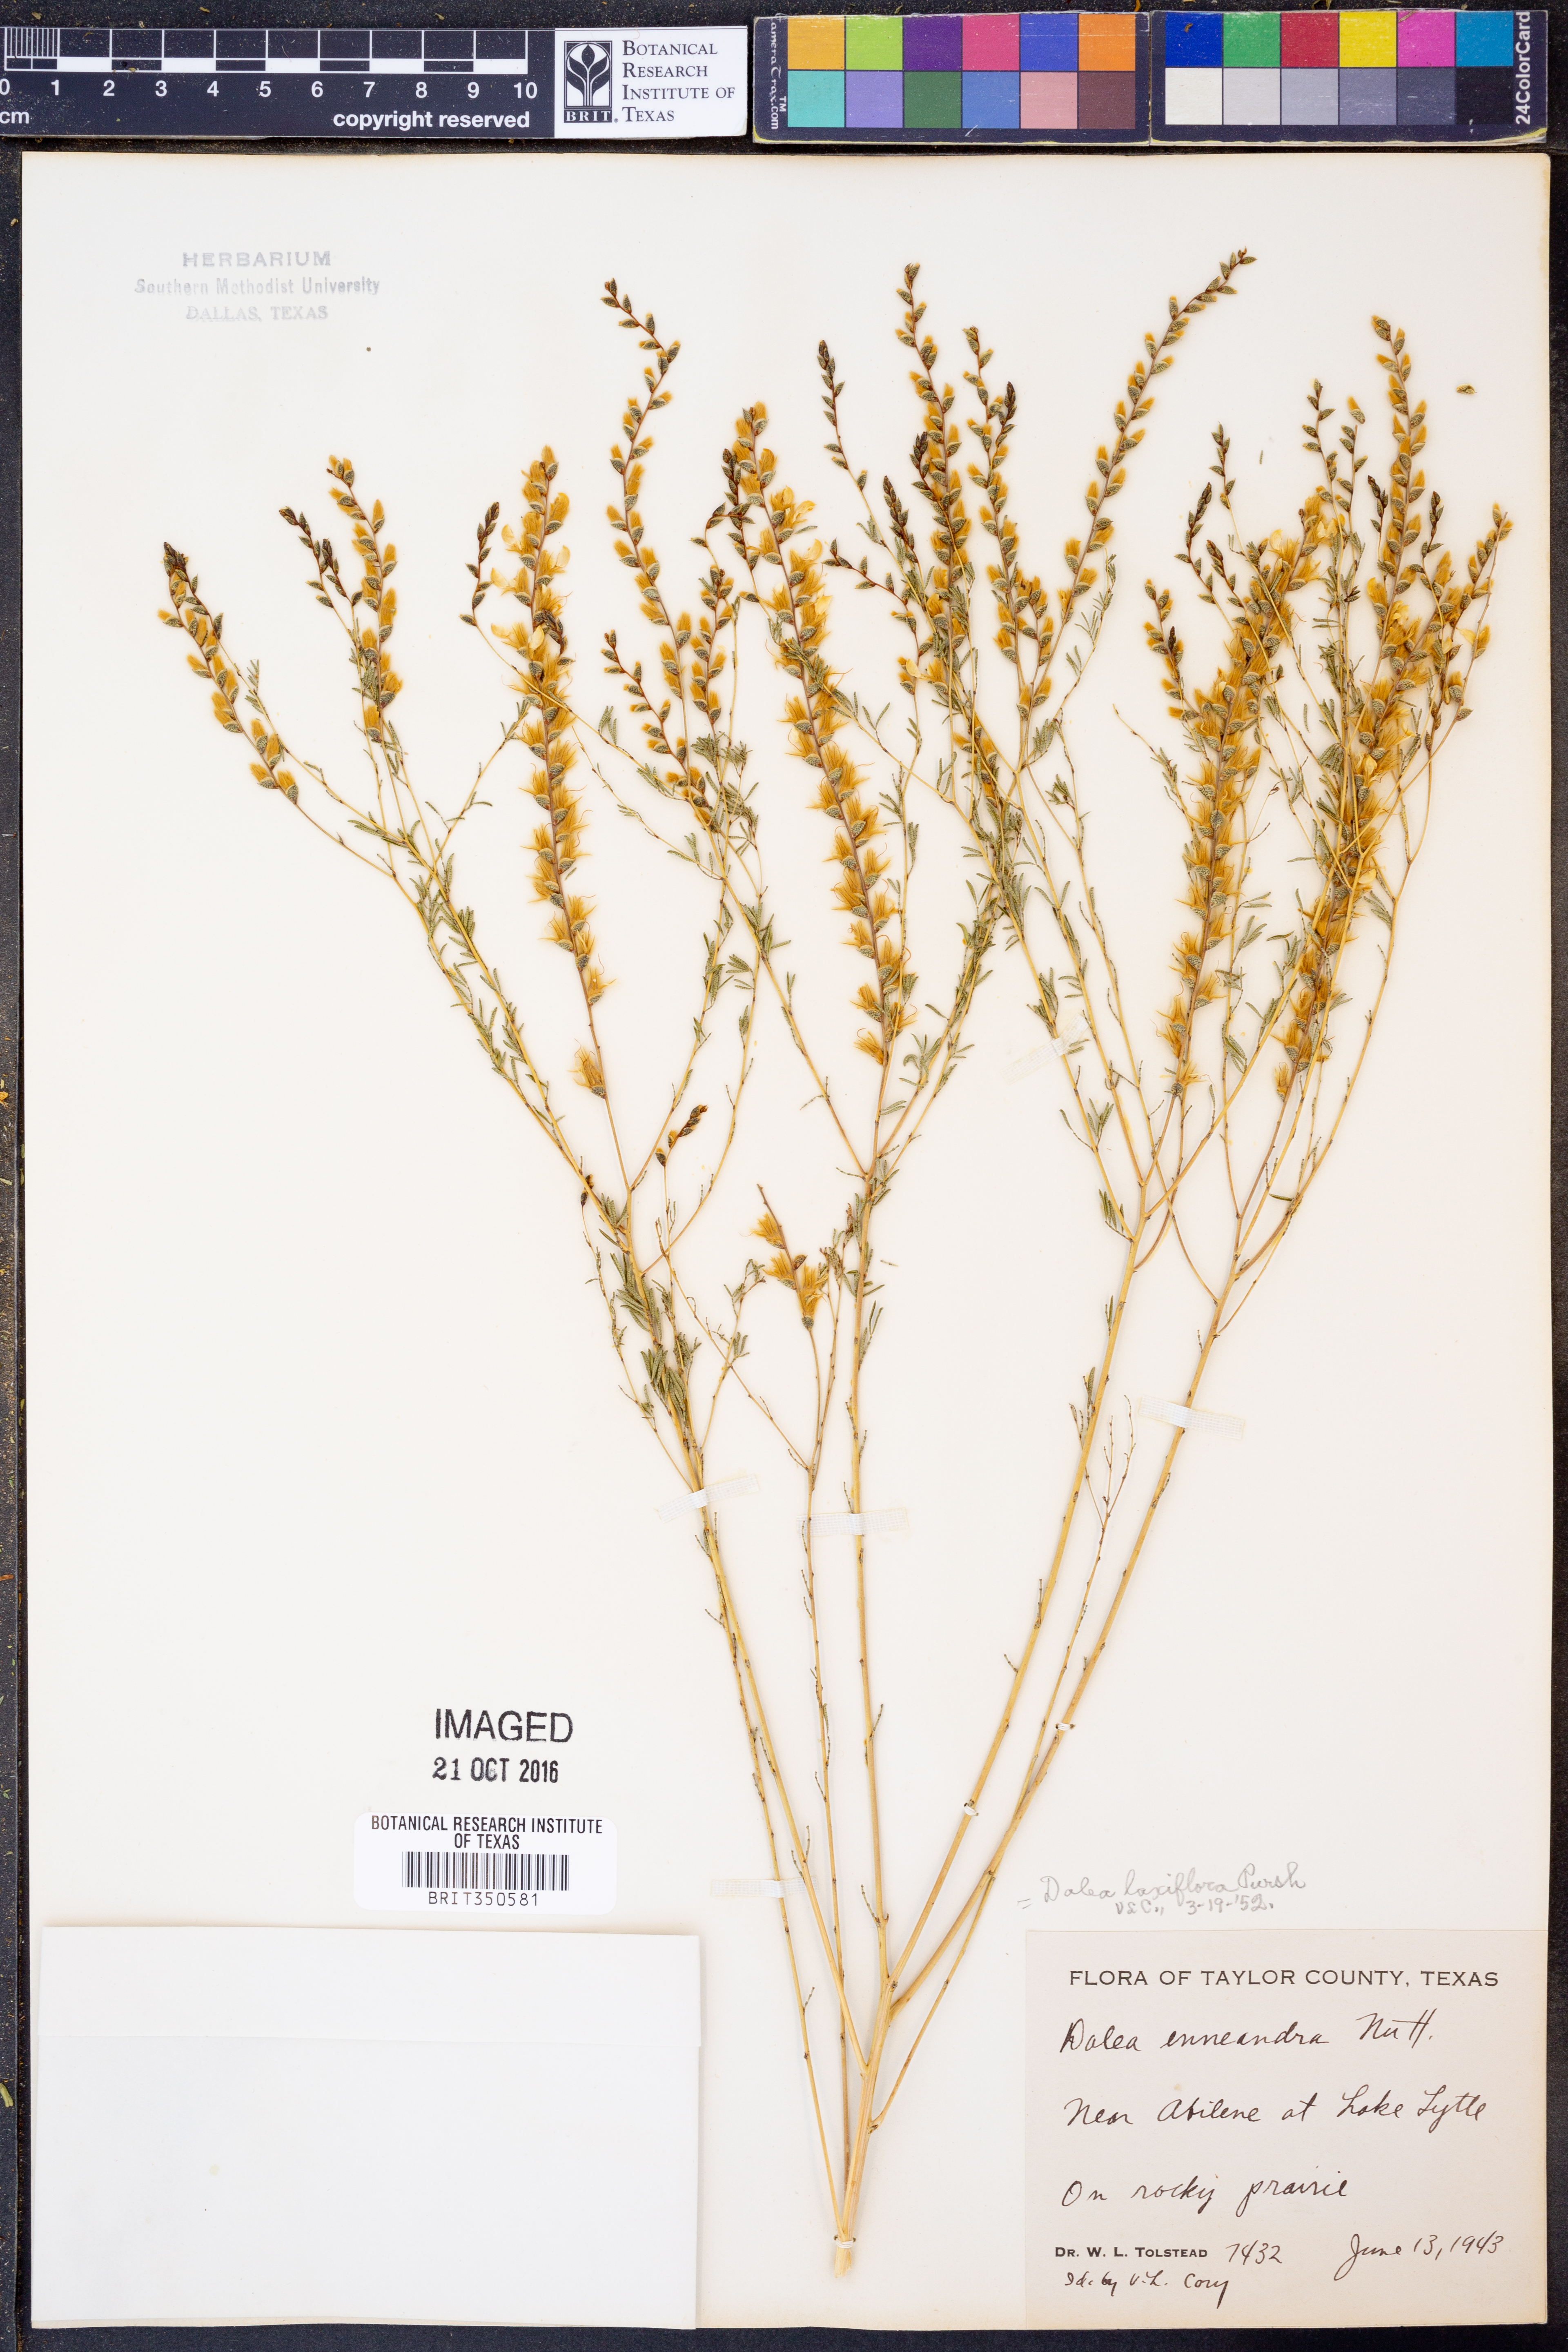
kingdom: Plantae
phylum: Tracheophyta
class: Magnoliopsida
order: Fabales
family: Fabaceae
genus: Dalea
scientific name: Dalea hegewischiana
